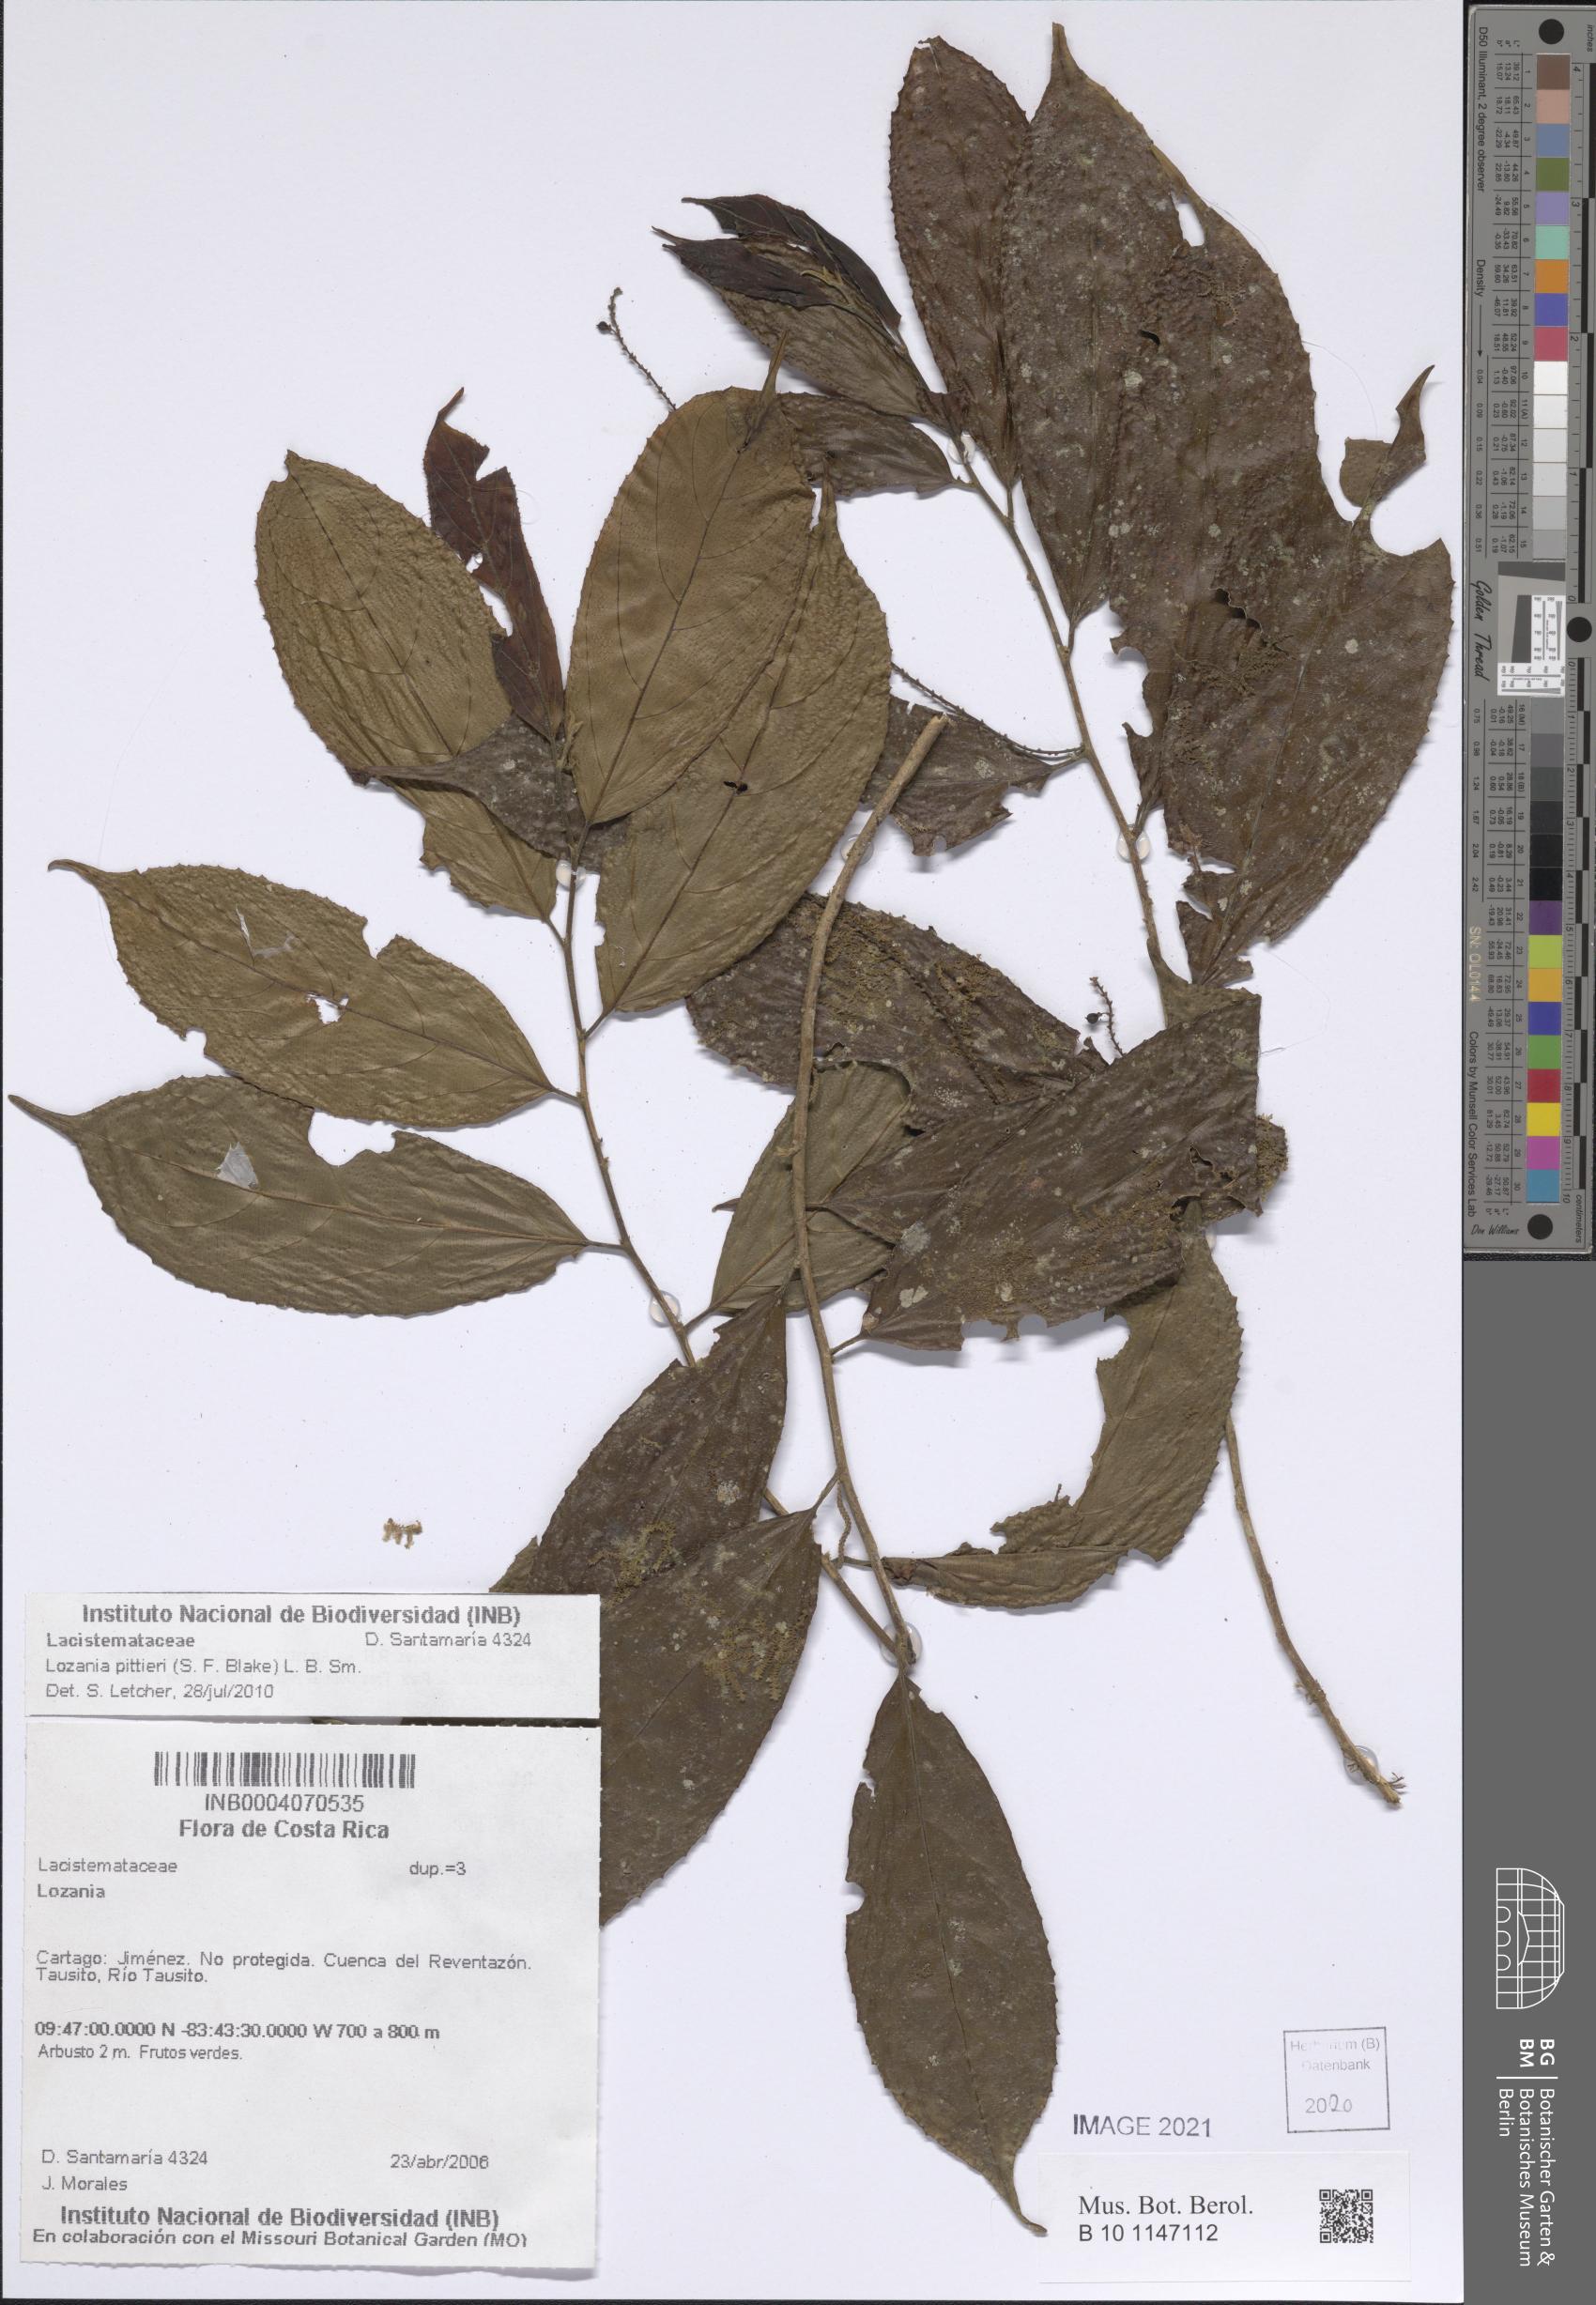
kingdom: Plantae
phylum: Tracheophyta
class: Magnoliopsida
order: Malpighiales
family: Lacistemataceae
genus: Lozania
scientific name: Lozania pittieri
